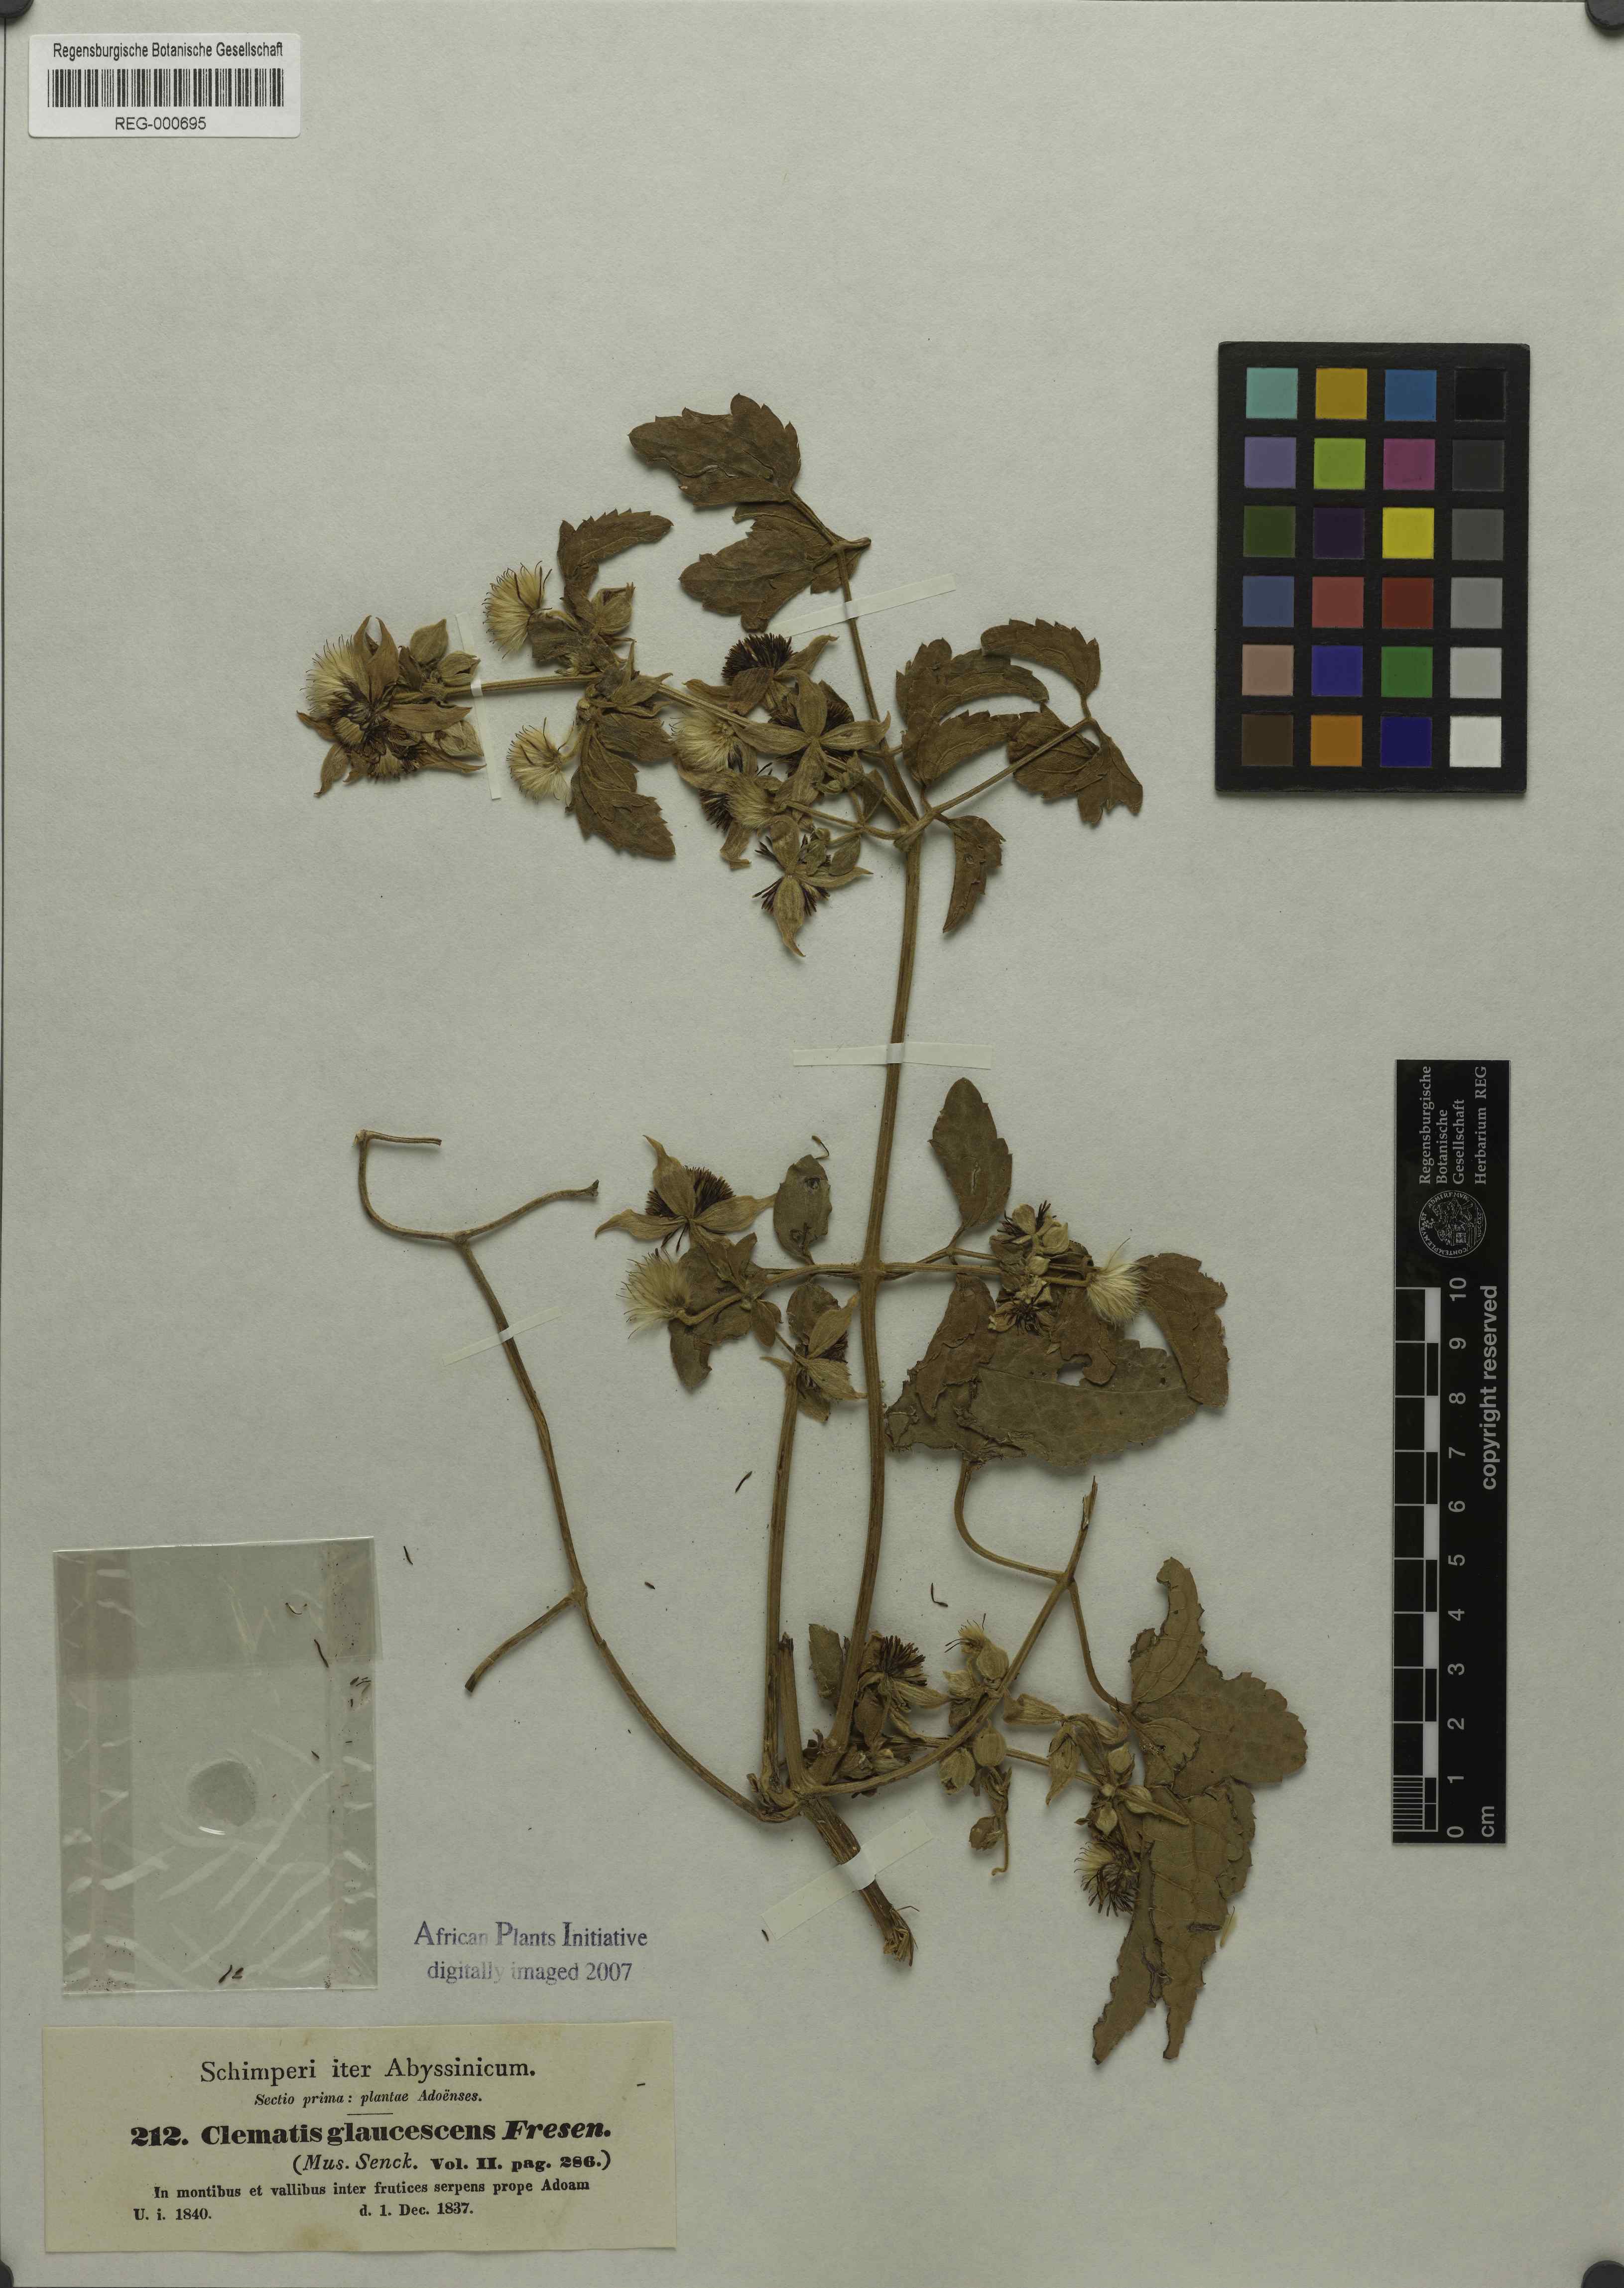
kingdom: Plantae
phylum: Tracheophyta
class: Magnoliopsida
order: Ranunculales
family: Ranunculaceae
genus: Clematis
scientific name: Clematis triloba
